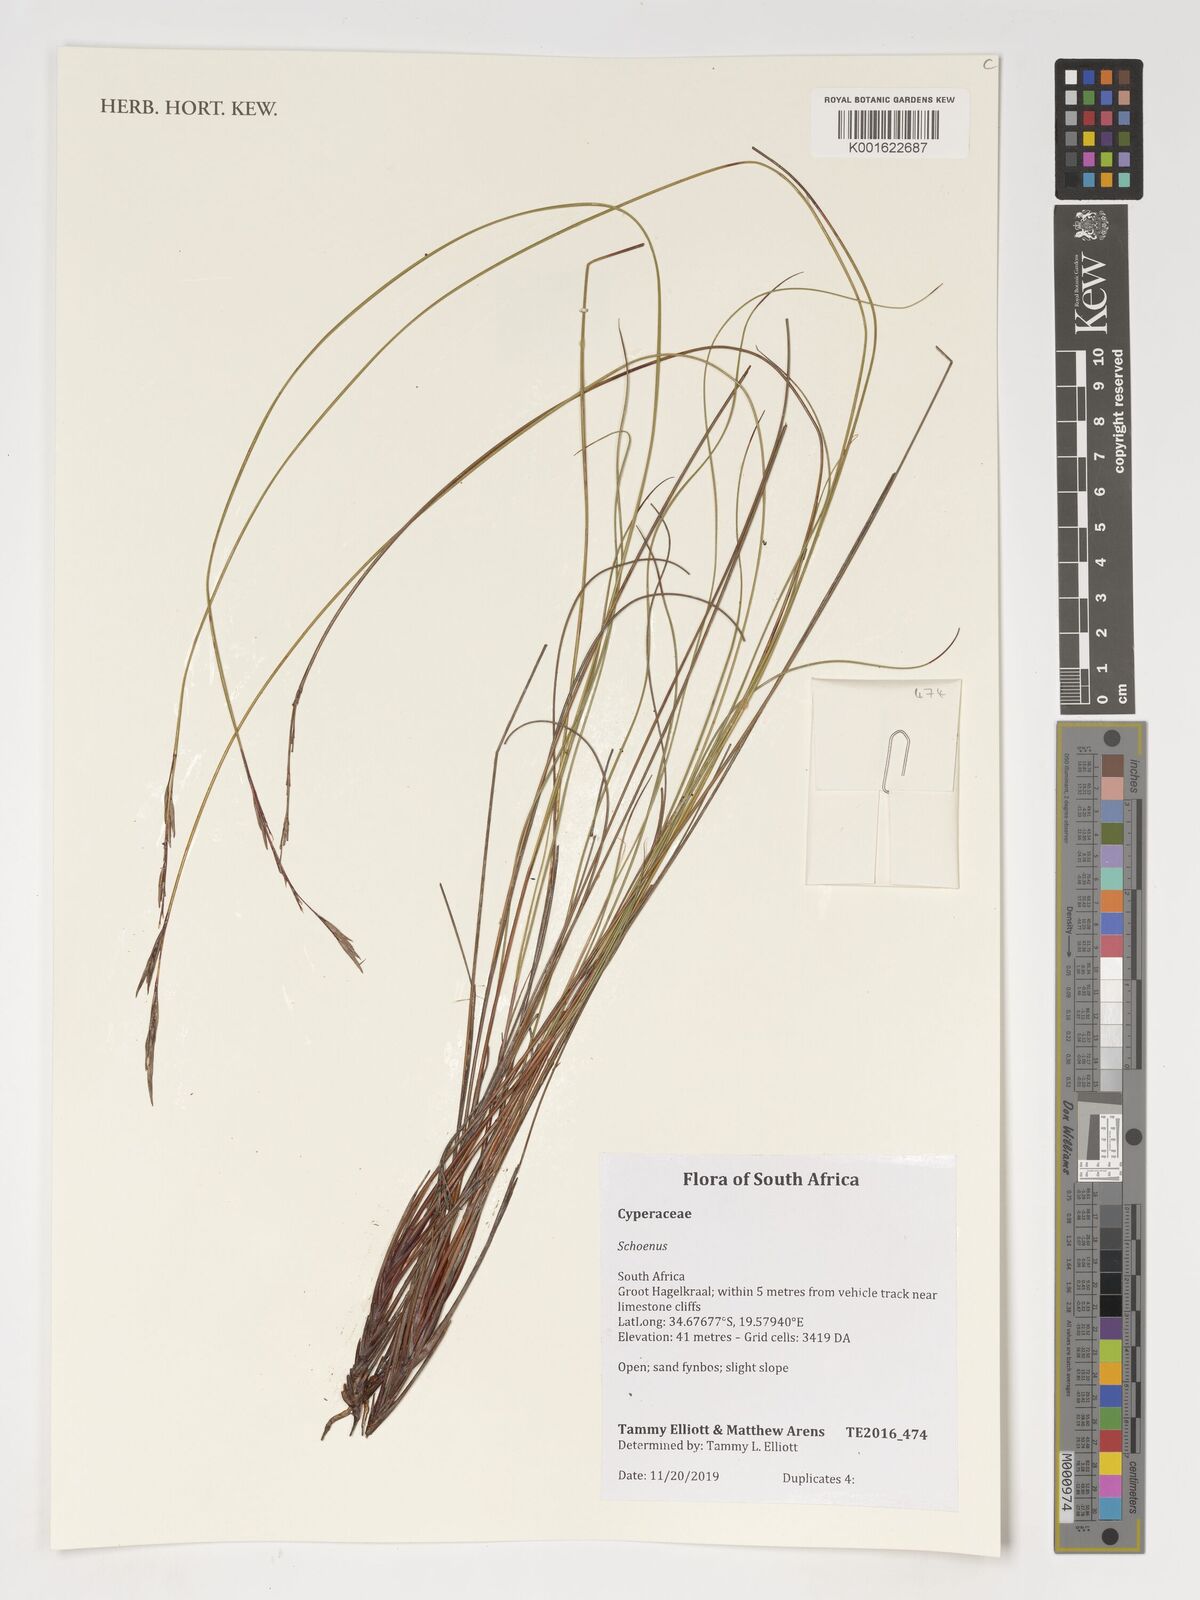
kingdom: Plantae
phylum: Tracheophyta
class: Liliopsida
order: Poales
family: Cyperaceae
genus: Schoenus
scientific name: Schoenus
